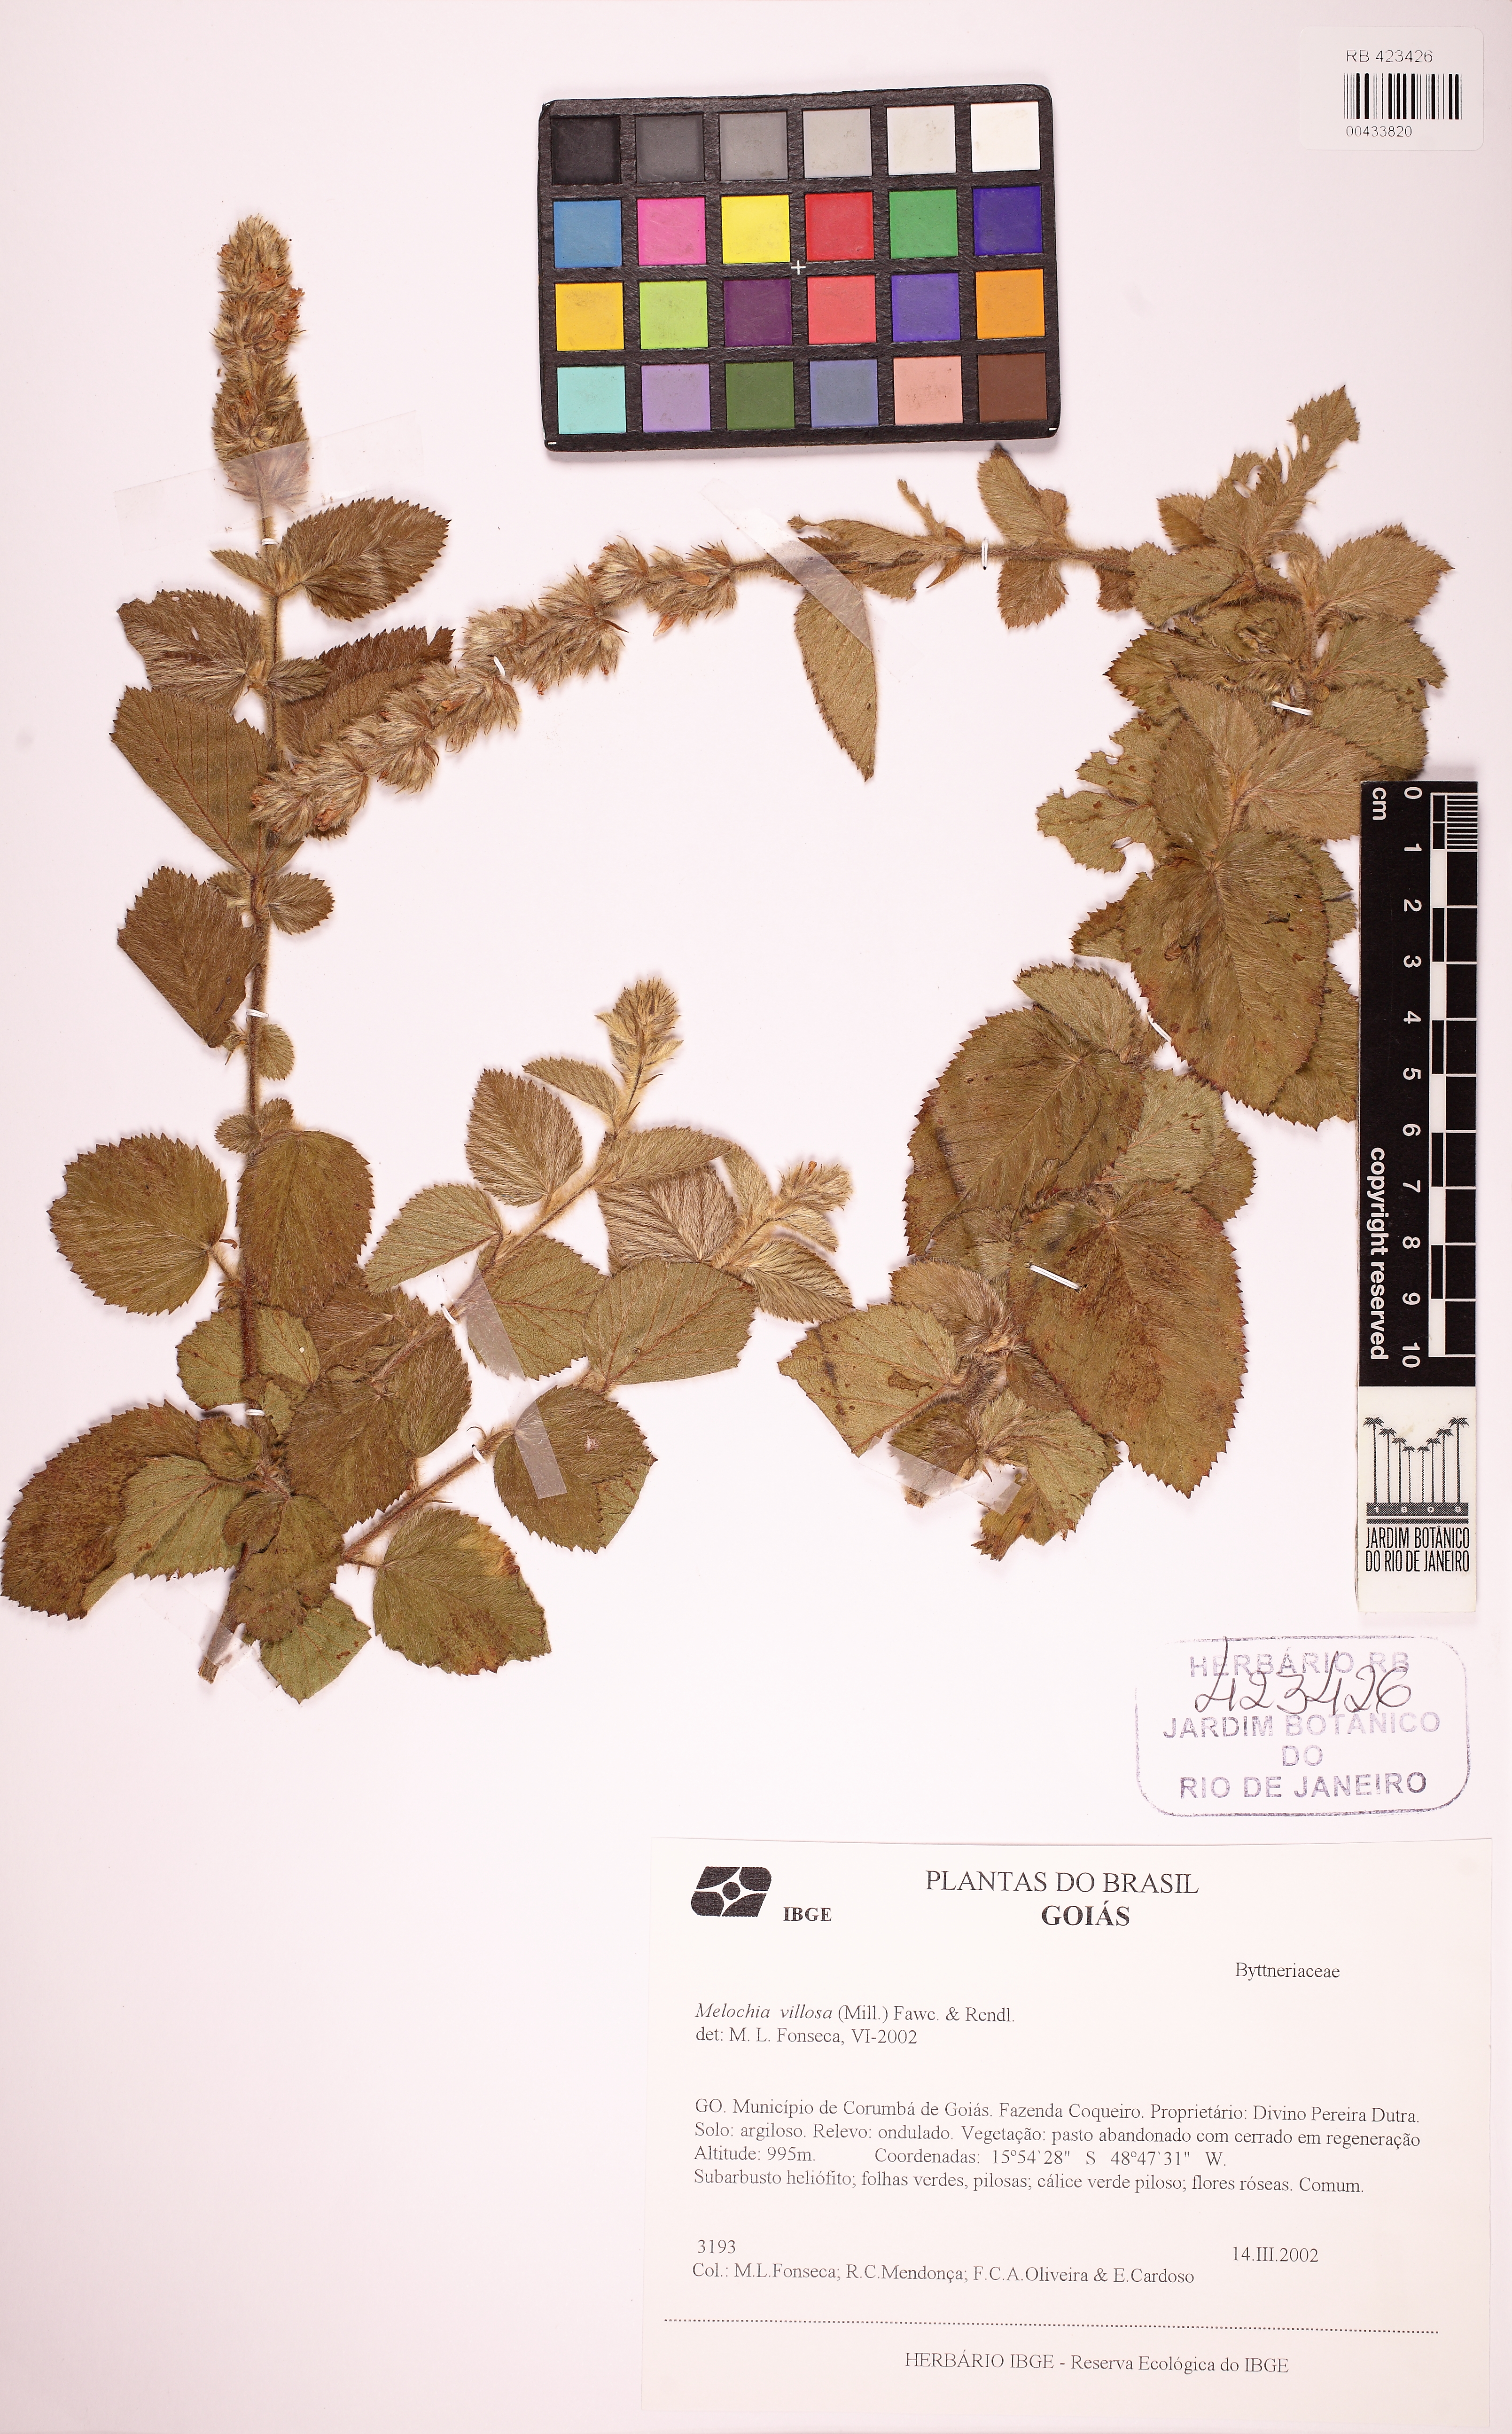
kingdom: Plantae
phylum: Tracheophyta
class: Magnoliopsida
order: Malvales
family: Malvaceae
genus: Melochia
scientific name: Melochia spicata
